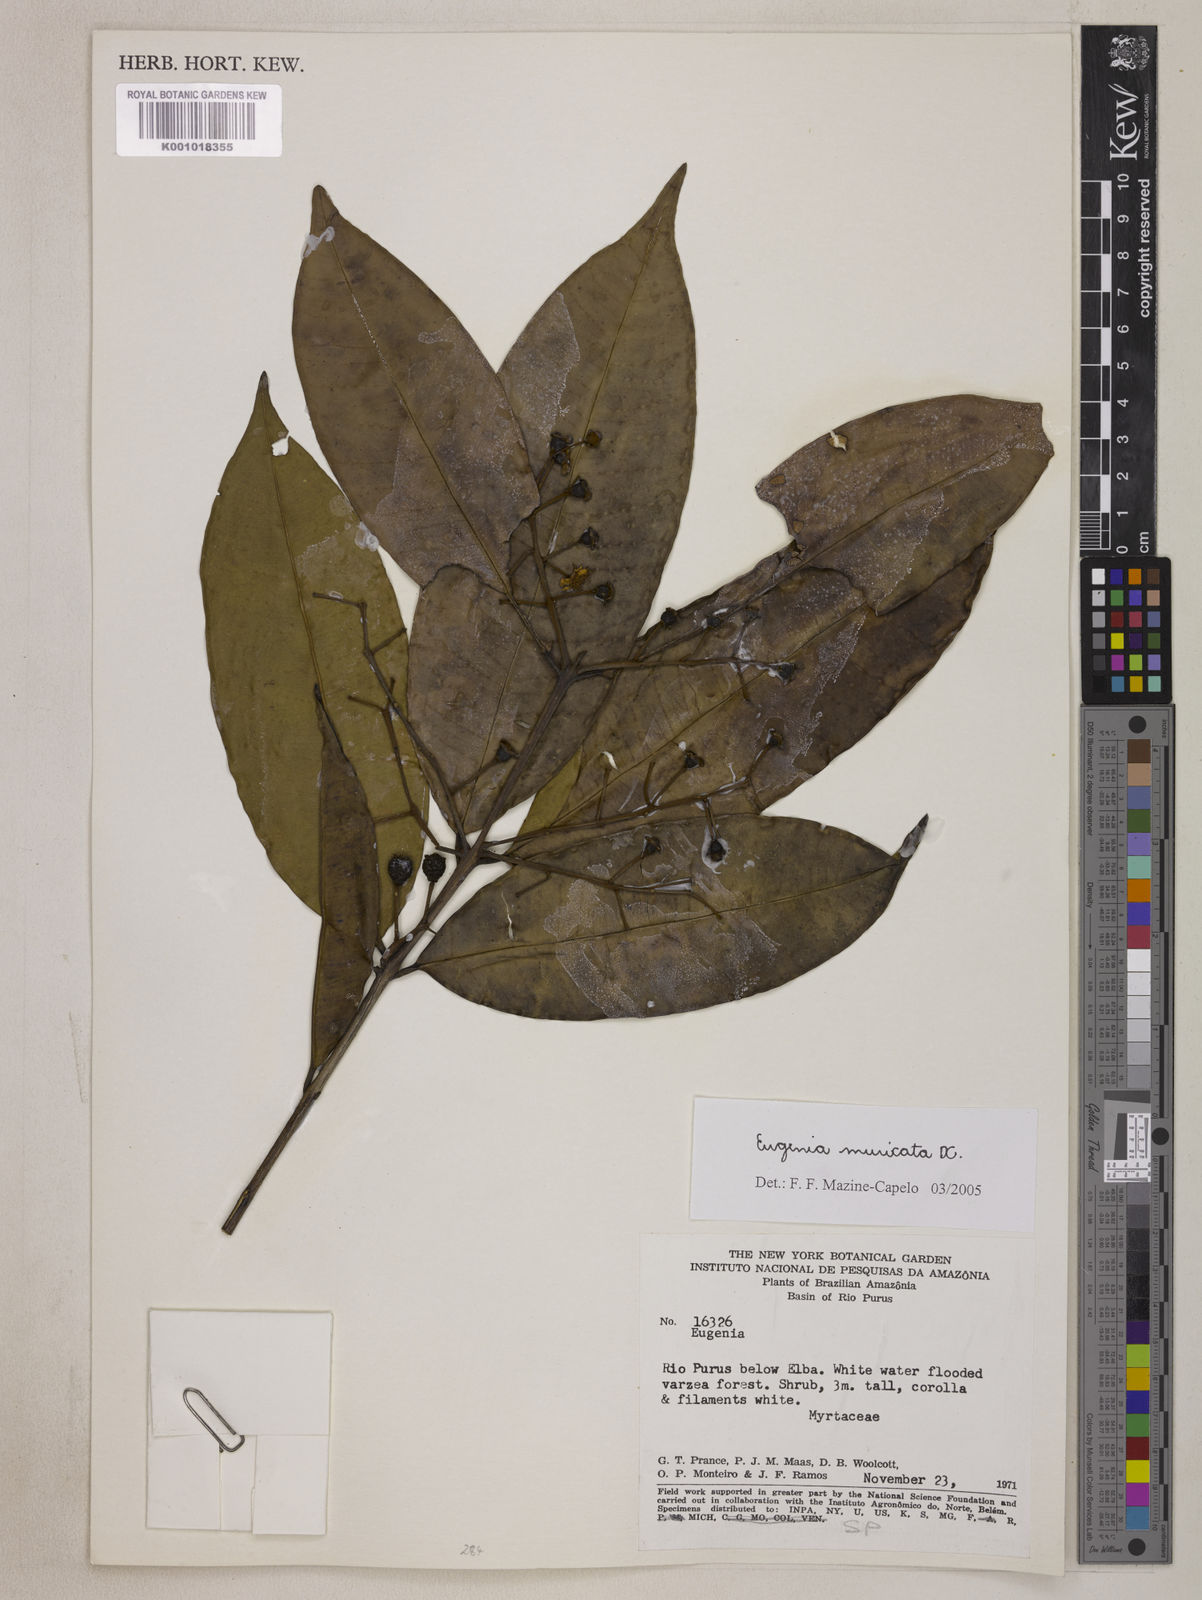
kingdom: Plantae
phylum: Tracheophyta
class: Magnoliopsida
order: Myrtales
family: Myrtaceae
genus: Eugenia
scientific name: Eugenia muricata
